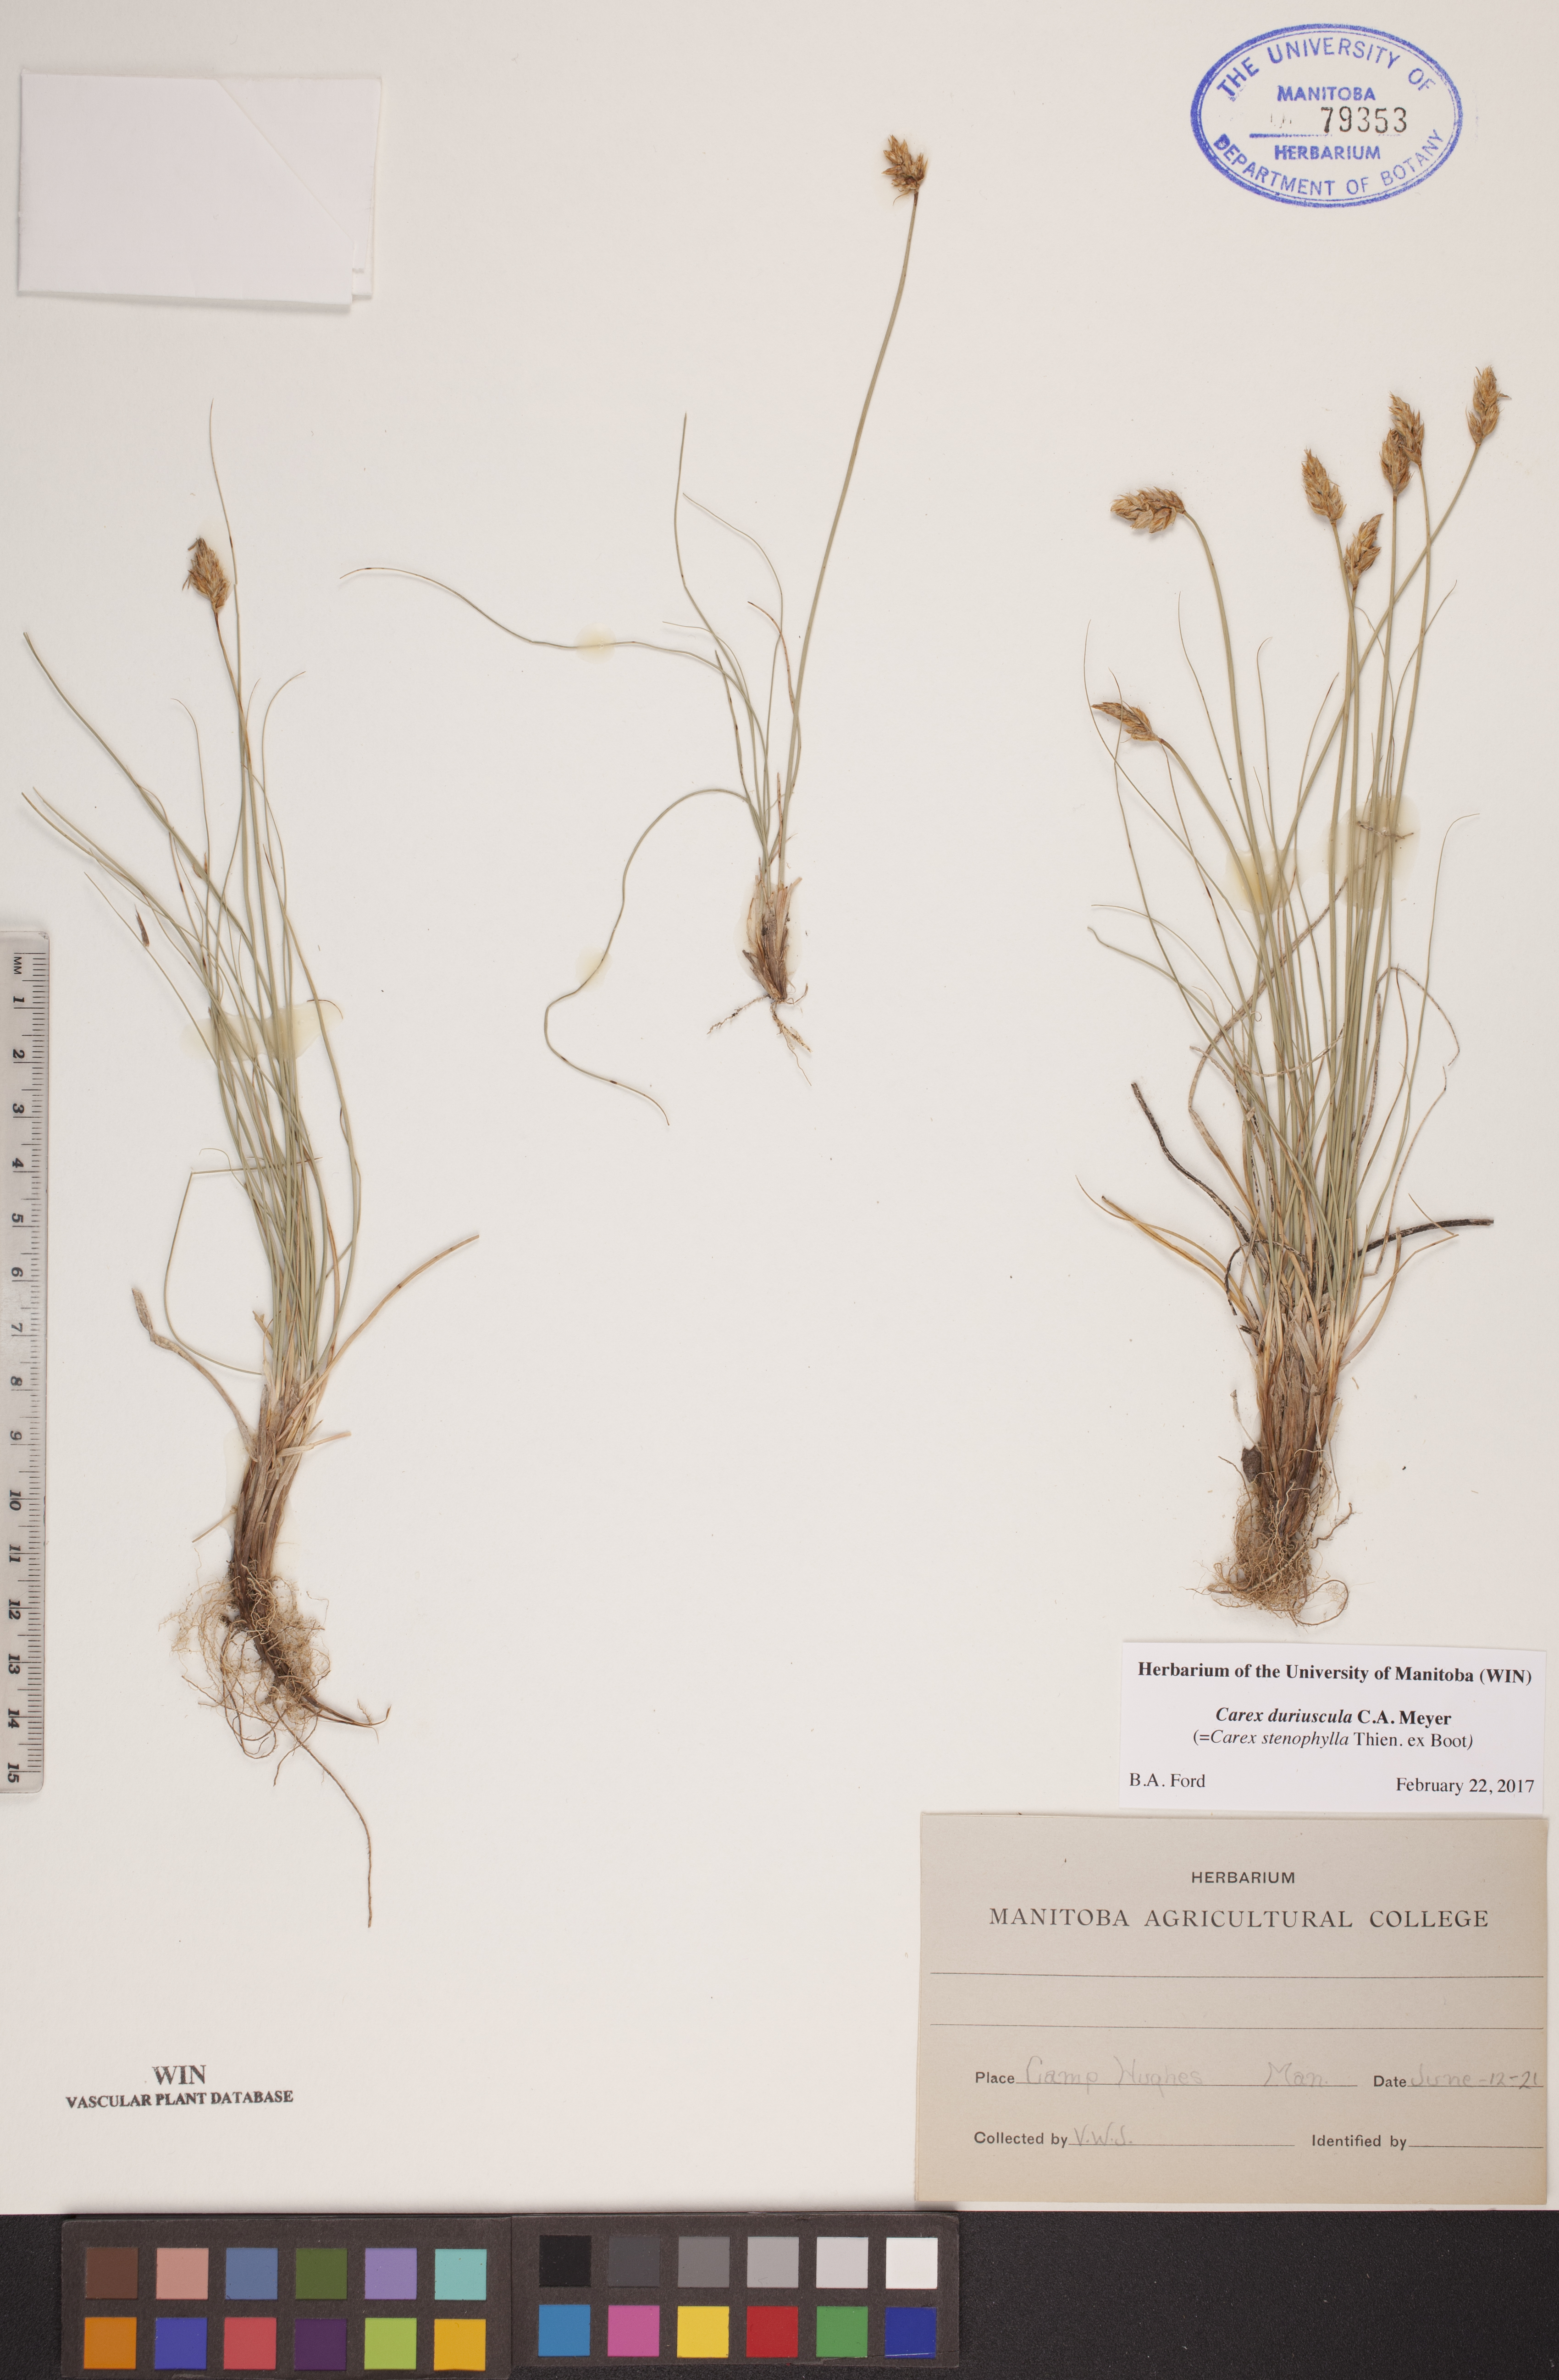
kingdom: Plantae
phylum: Tracheophyta
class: Liliopsida
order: Poales
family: Cyperaceae
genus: Carex
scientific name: Carex duriuscula
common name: Involute-leaved sedge
